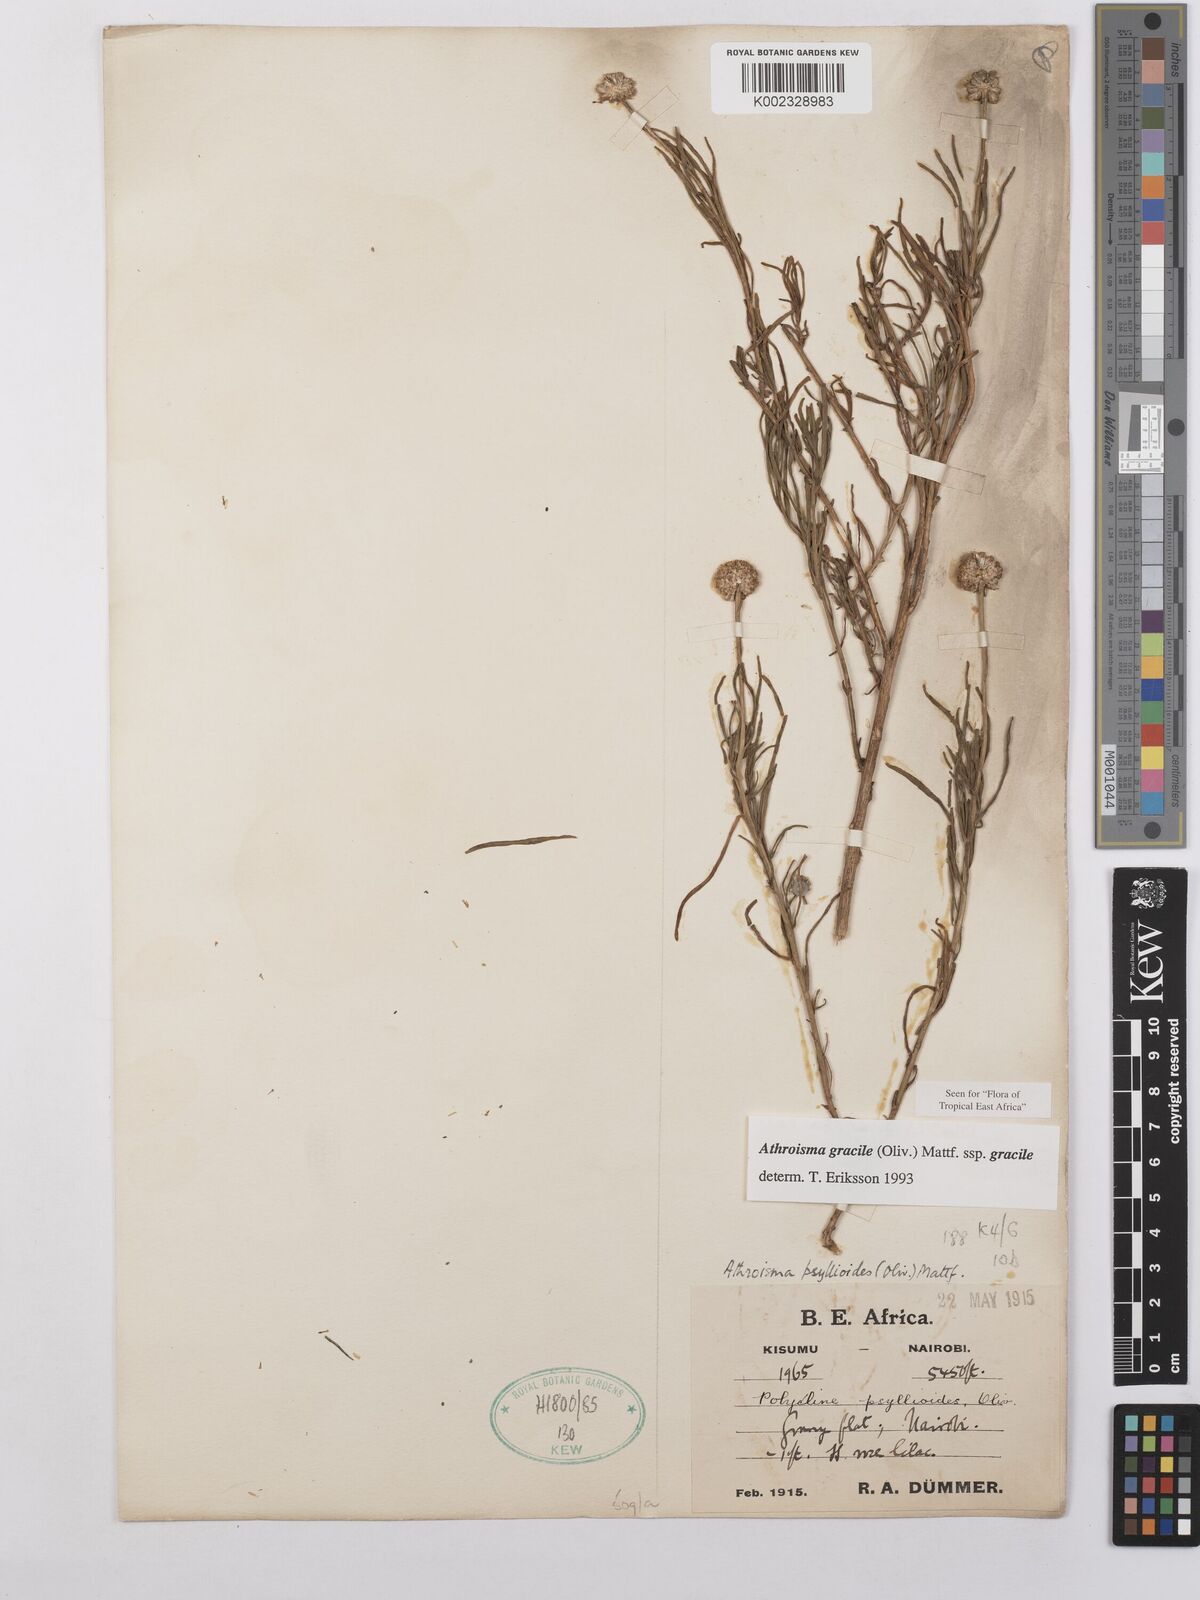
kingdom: Plantae
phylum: Tracheophyta
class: Magnoliopsida
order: Asterales
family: Asteraceae
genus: Athroisma
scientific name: Athroisma gracile
